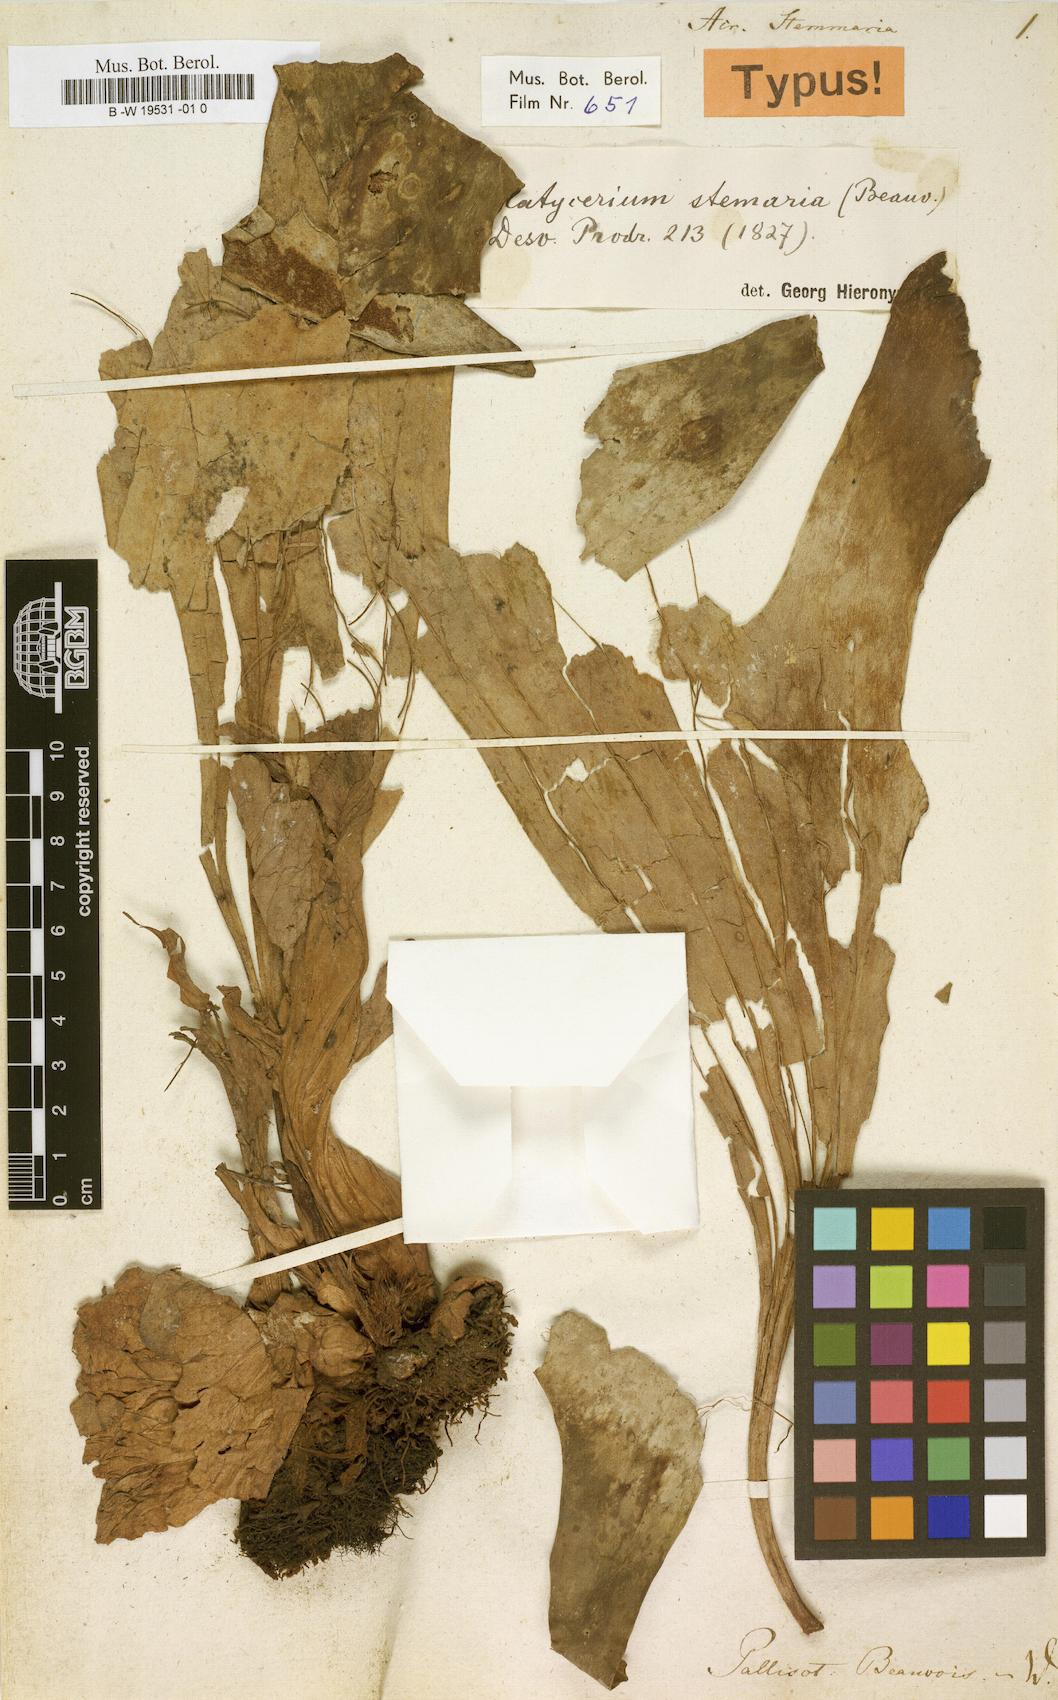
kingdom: Plantae
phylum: Tracheophyta
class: Polypodiopsida
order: Polypodiales
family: Polypodiaceae
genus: Platycerium
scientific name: Platycerium stemaria
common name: Triangular staghorn fern
